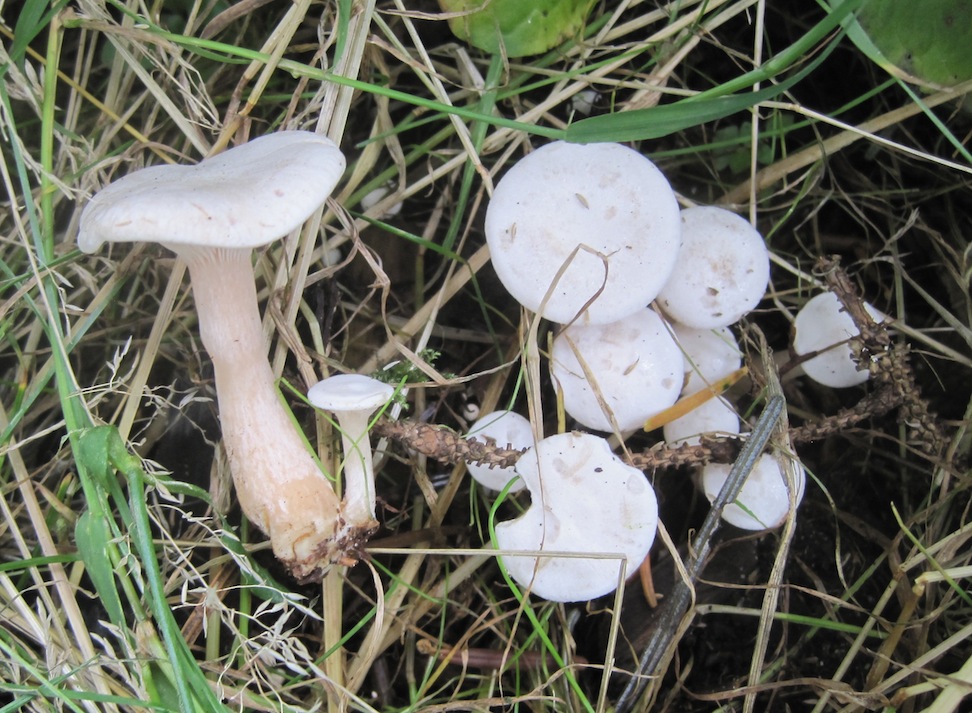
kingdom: Fungi
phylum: Basidiomycota
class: Agaricomycetes
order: Agaricales
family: Tricholomataceae
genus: Lepista
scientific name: Lepista densifolia
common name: tætbladet hekseringshat
